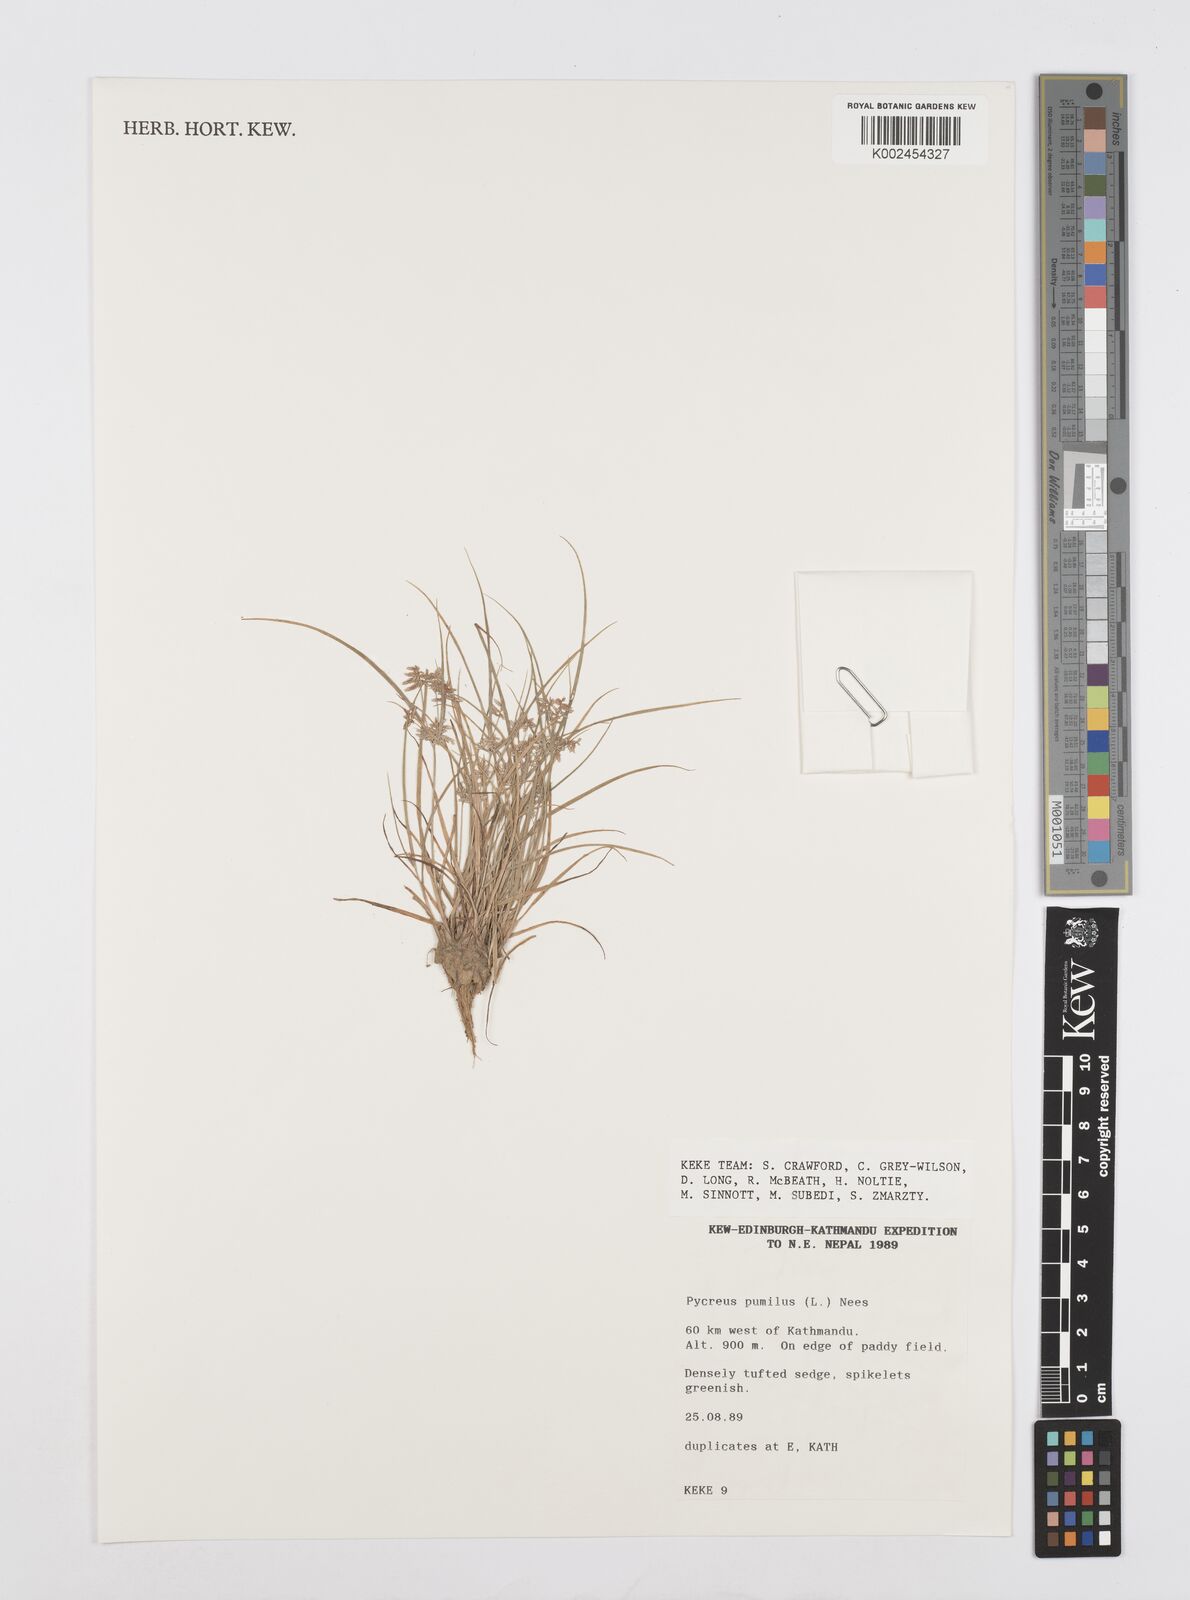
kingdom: Plantae
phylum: Tracheophyta
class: Liliopsida
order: Poales
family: Cyperaceae
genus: Cyperus
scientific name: Cyperus pumilus
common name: Low flatsedge
